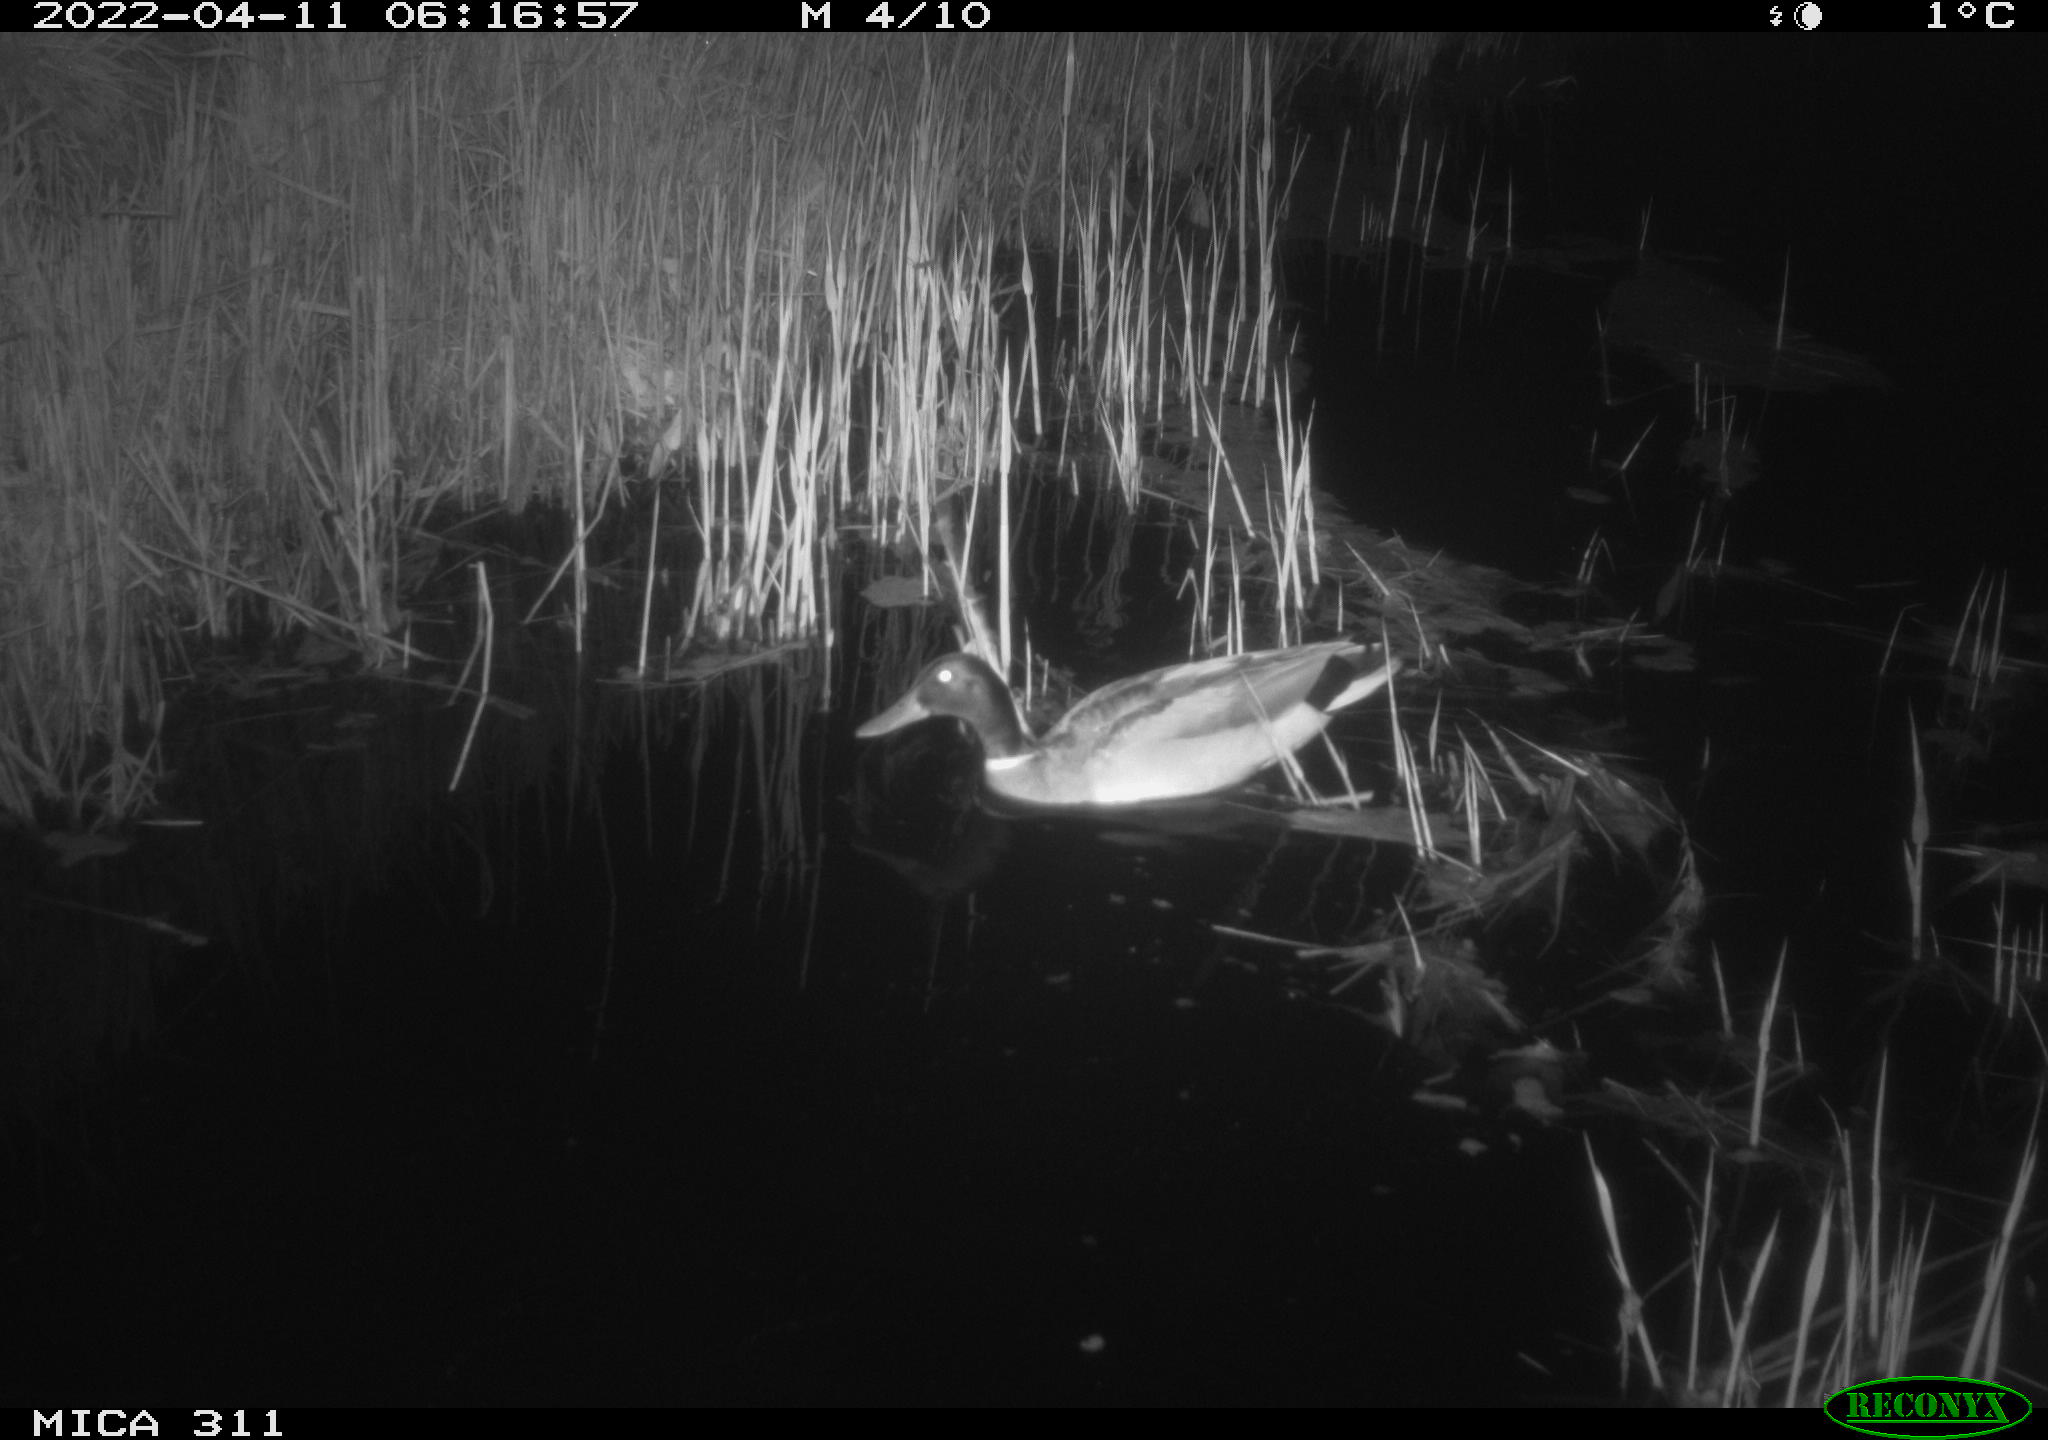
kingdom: Animalia
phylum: Chordata
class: Aves
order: Anseriformes
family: Anatidae
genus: Anas
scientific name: Anas platyrhynchos
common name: Mallard
